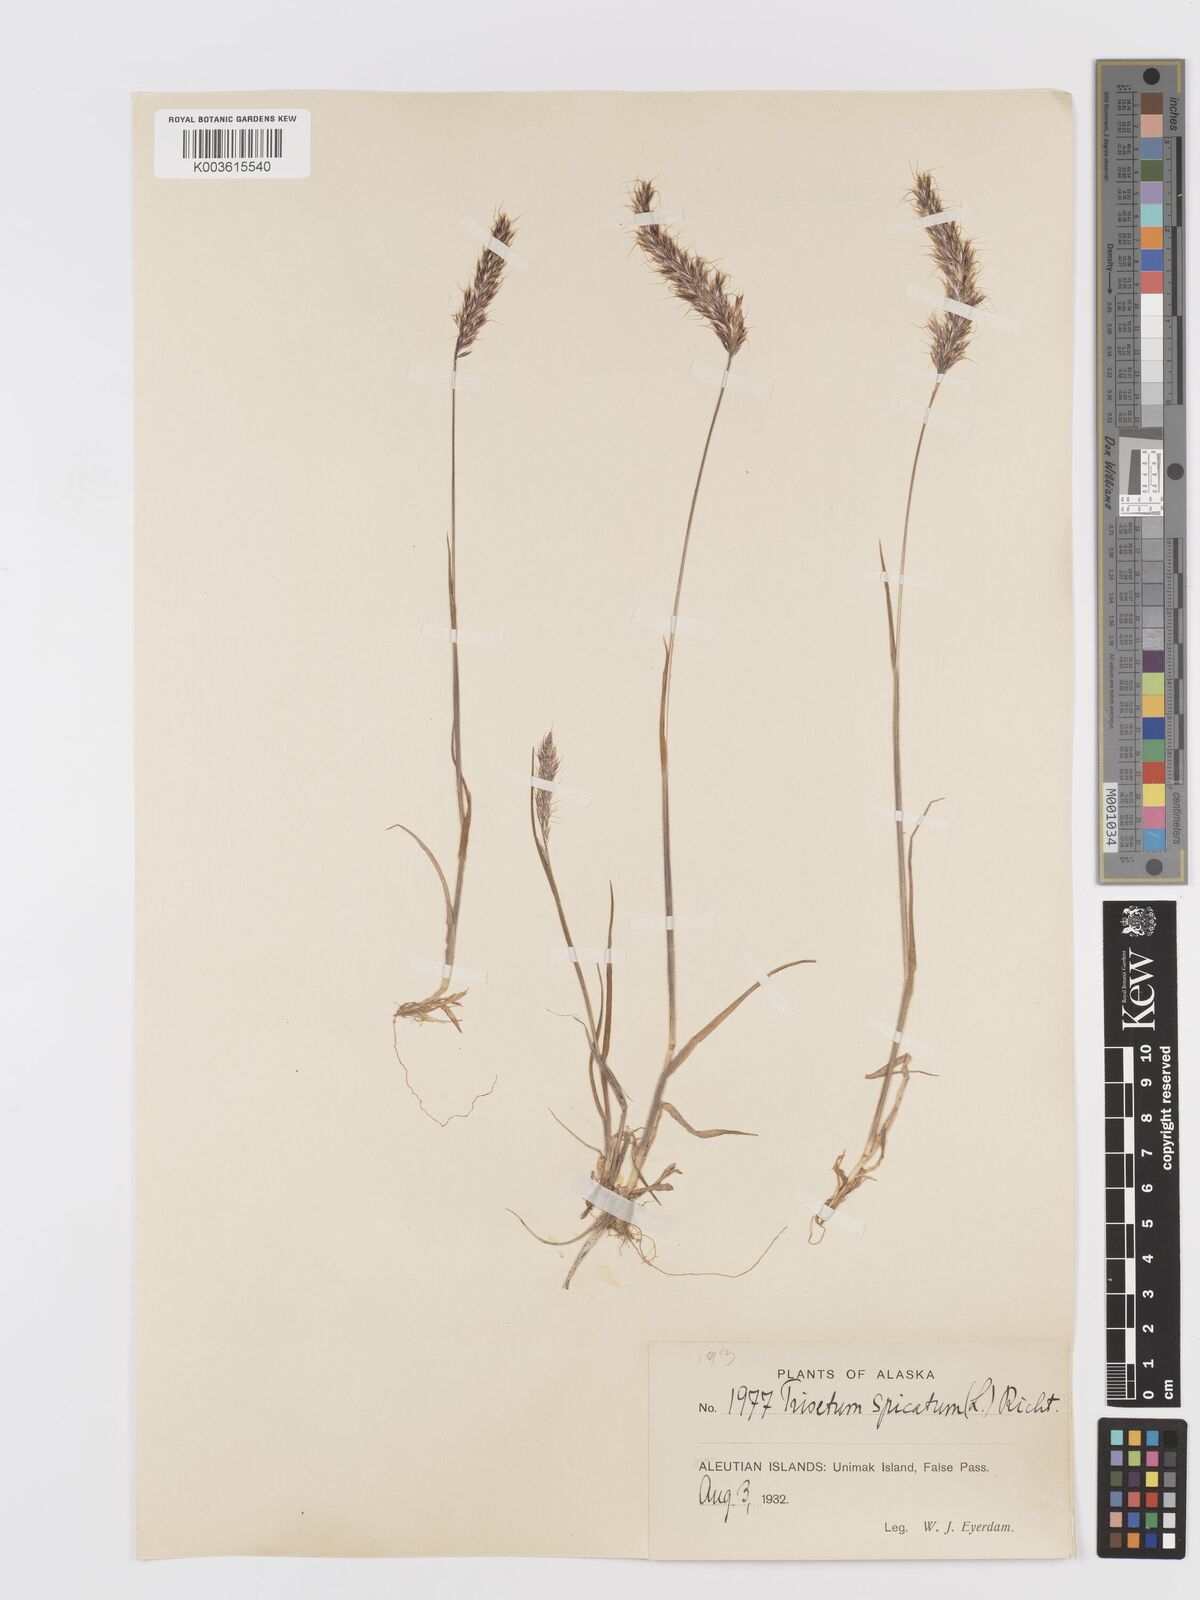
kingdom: Plantae
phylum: Tracheophyta
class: Liliopsida
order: Poales
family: Poaceae
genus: Koeleria
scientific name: Koeleria spicata
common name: Mountain trisetum
